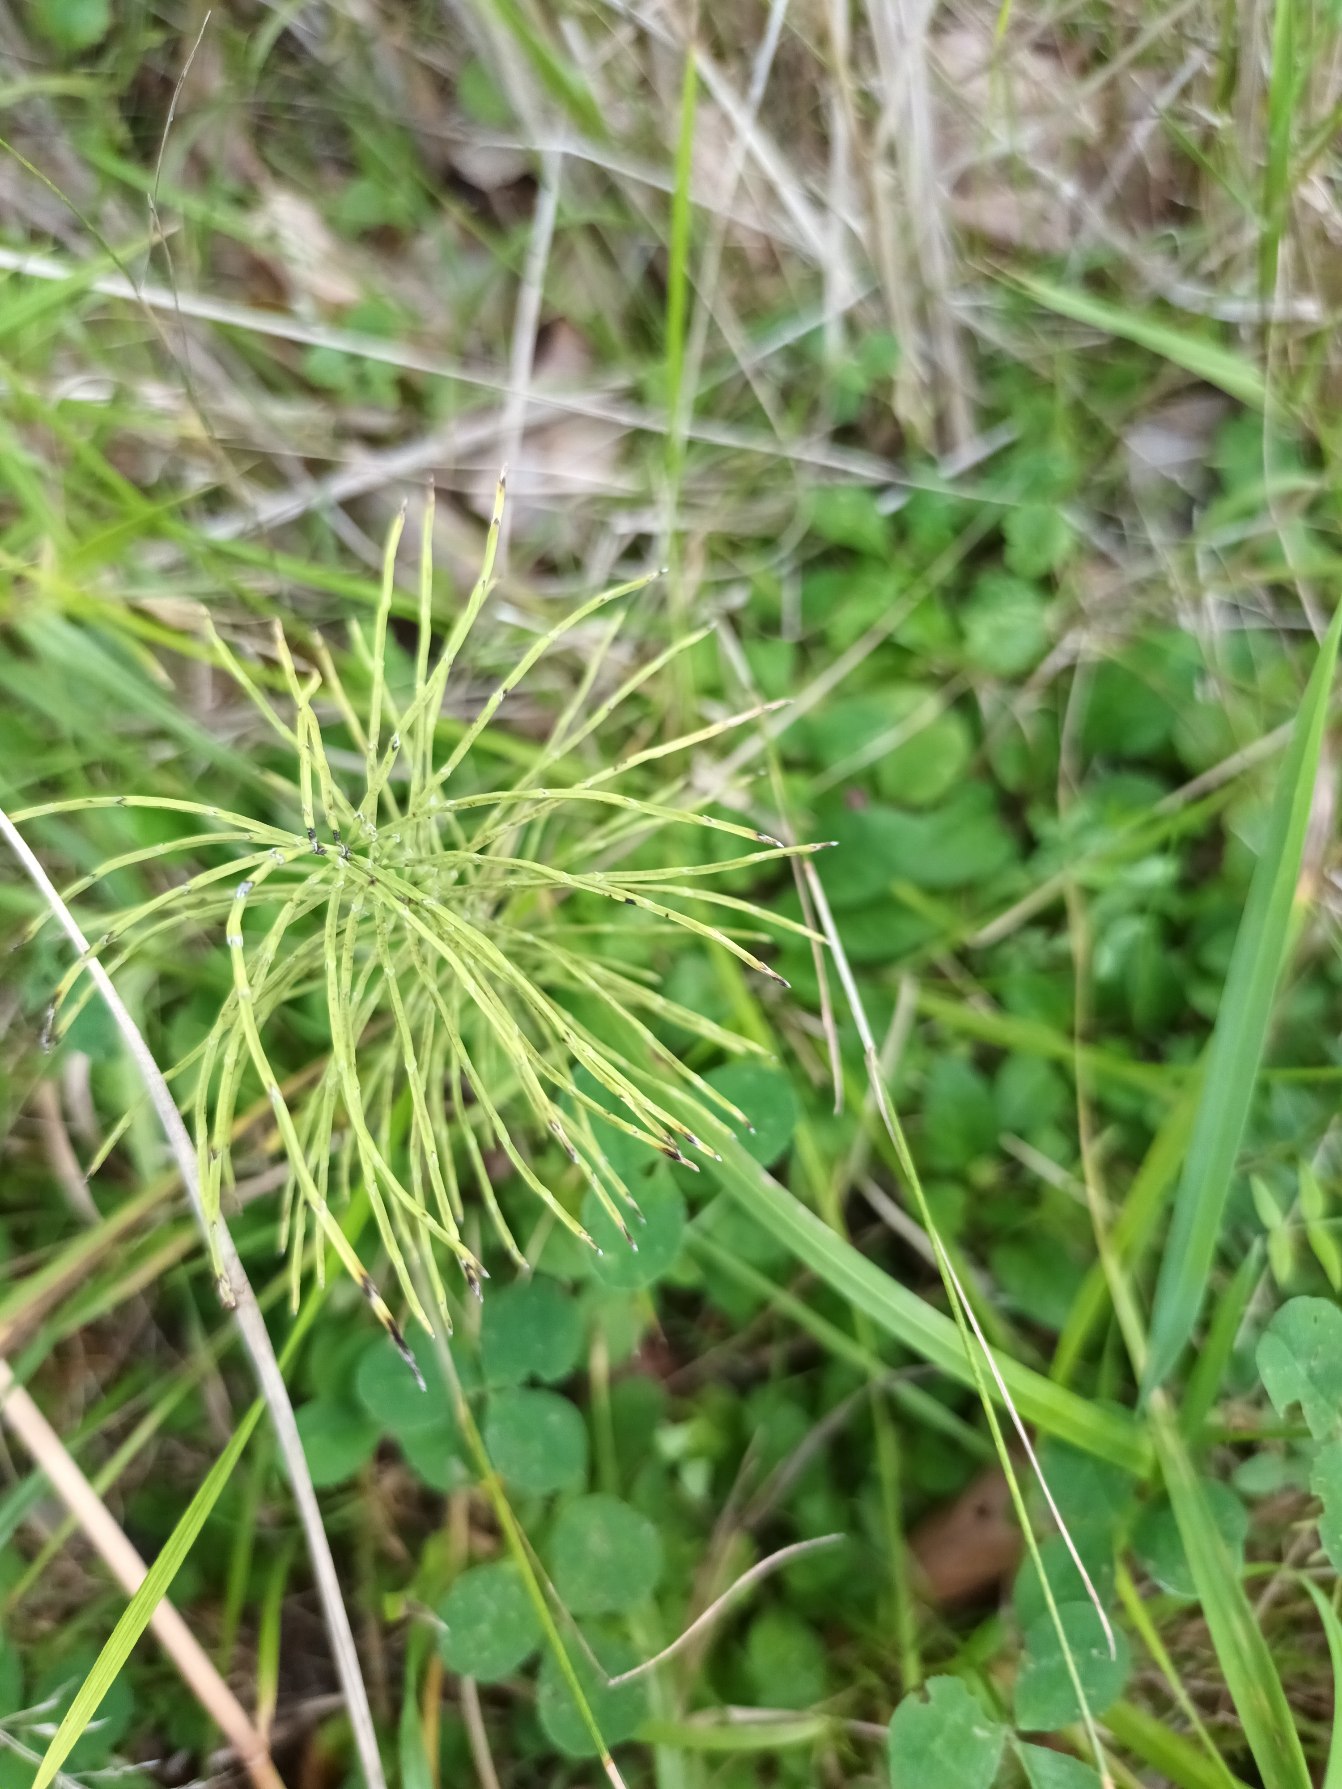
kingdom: Plantae
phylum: Tracheophyta
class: Polypodiopsida
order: Equisetales
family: Equisetaceae
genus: Equisetum
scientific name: Equisetum pratense
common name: Lund-padderok
